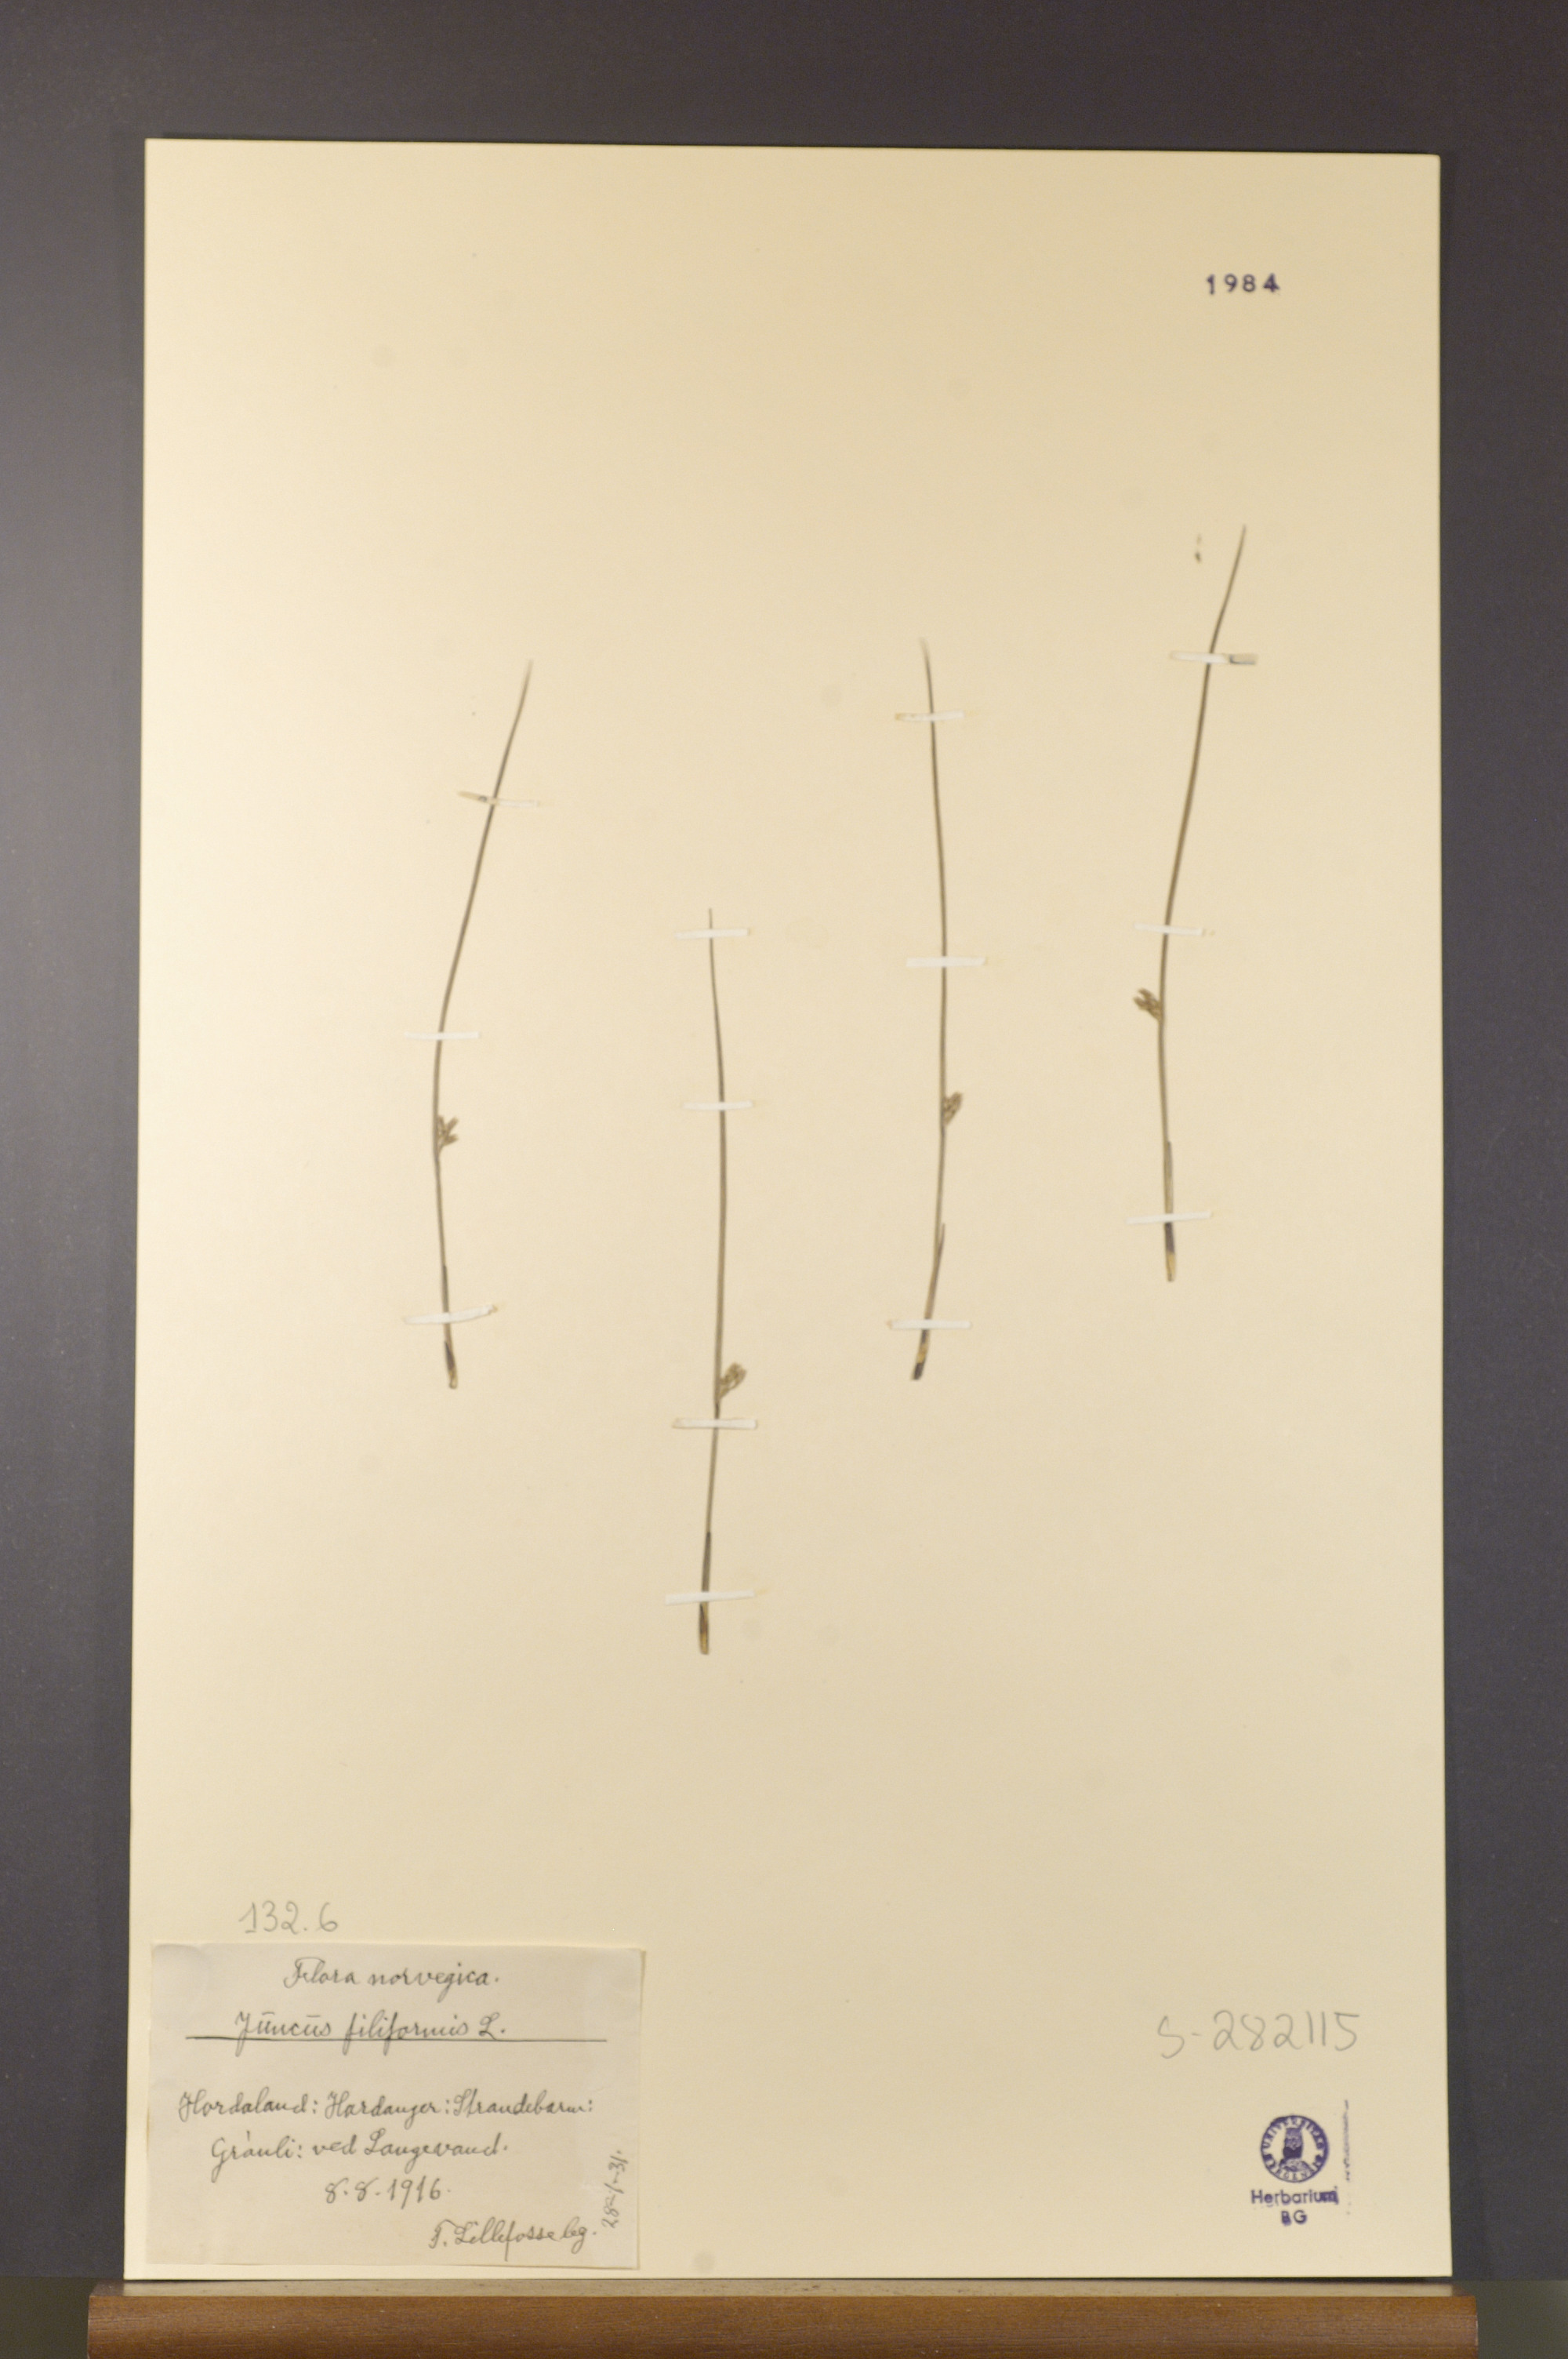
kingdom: Plantae
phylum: Tracheophyta
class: Liliopsida
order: Poales
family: Juncaceae
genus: Juncus
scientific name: Juncus filiformis
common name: Thread rush
